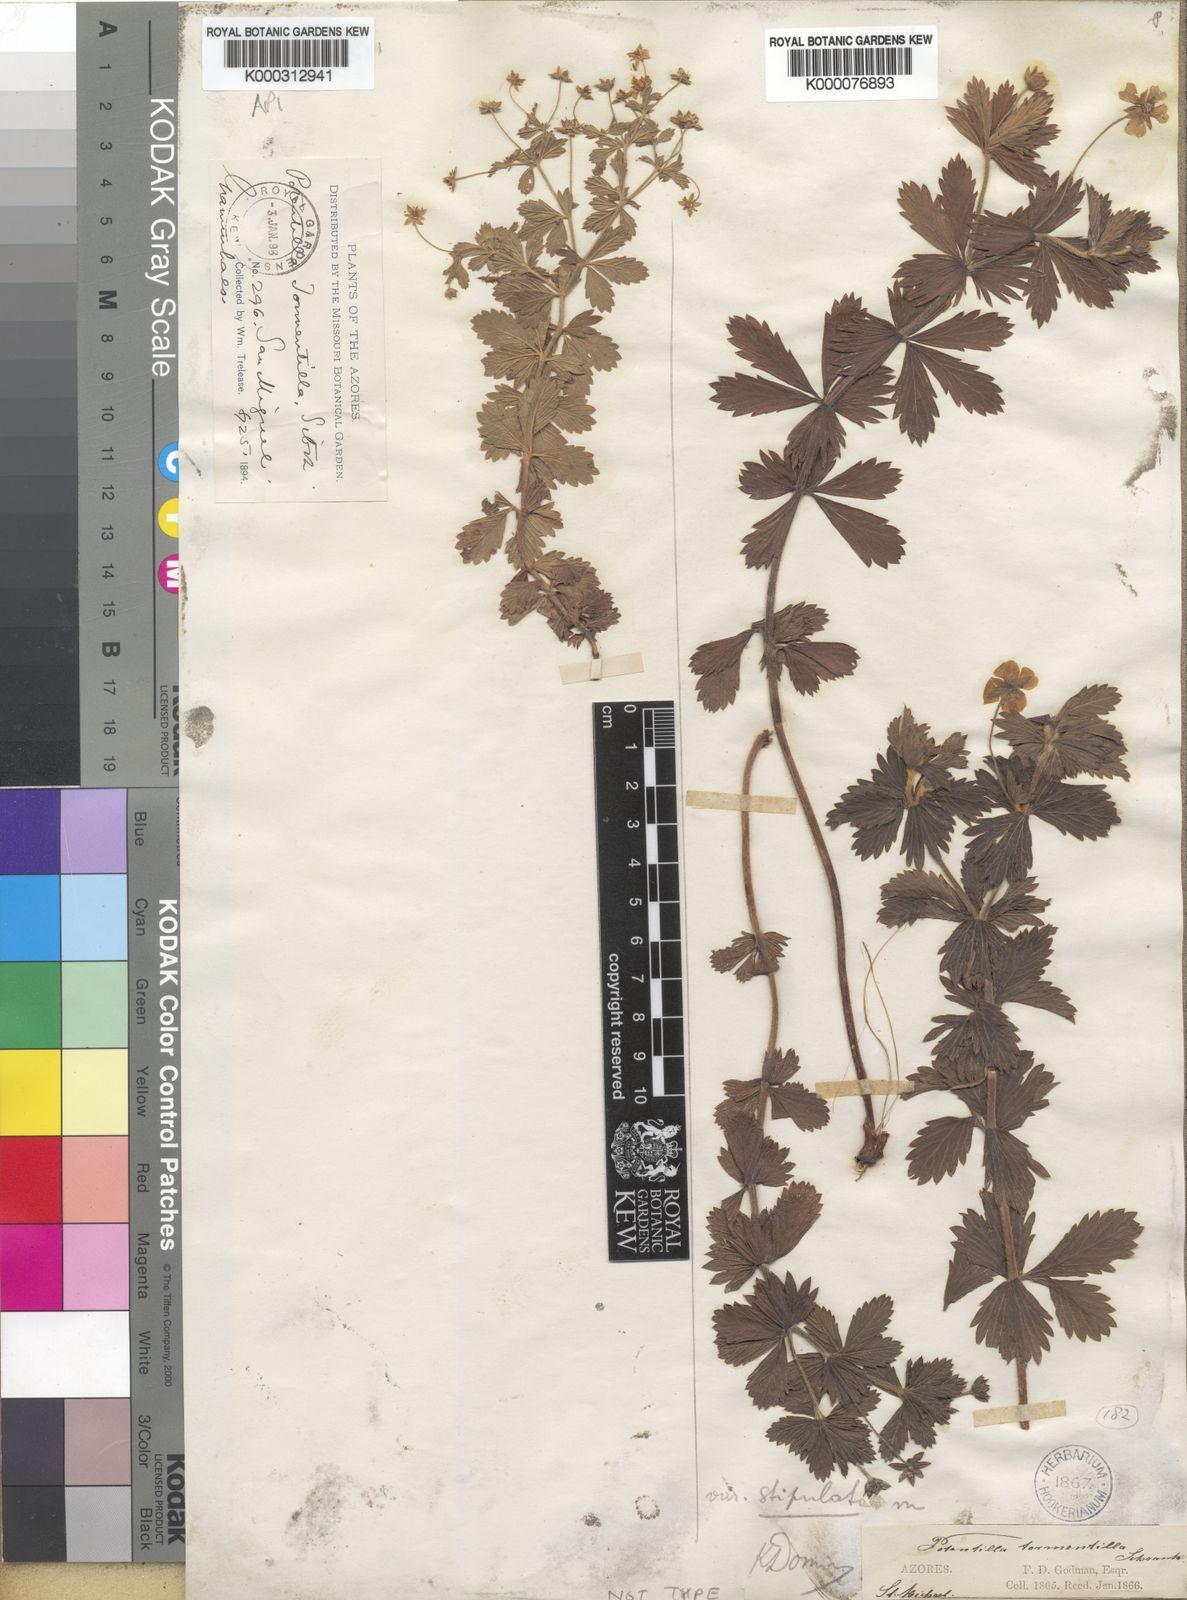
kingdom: Plantae
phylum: Tracheophyta
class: Magnoliopsida
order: Rosales
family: Rosaceae
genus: Potentilla
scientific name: Potentilla
